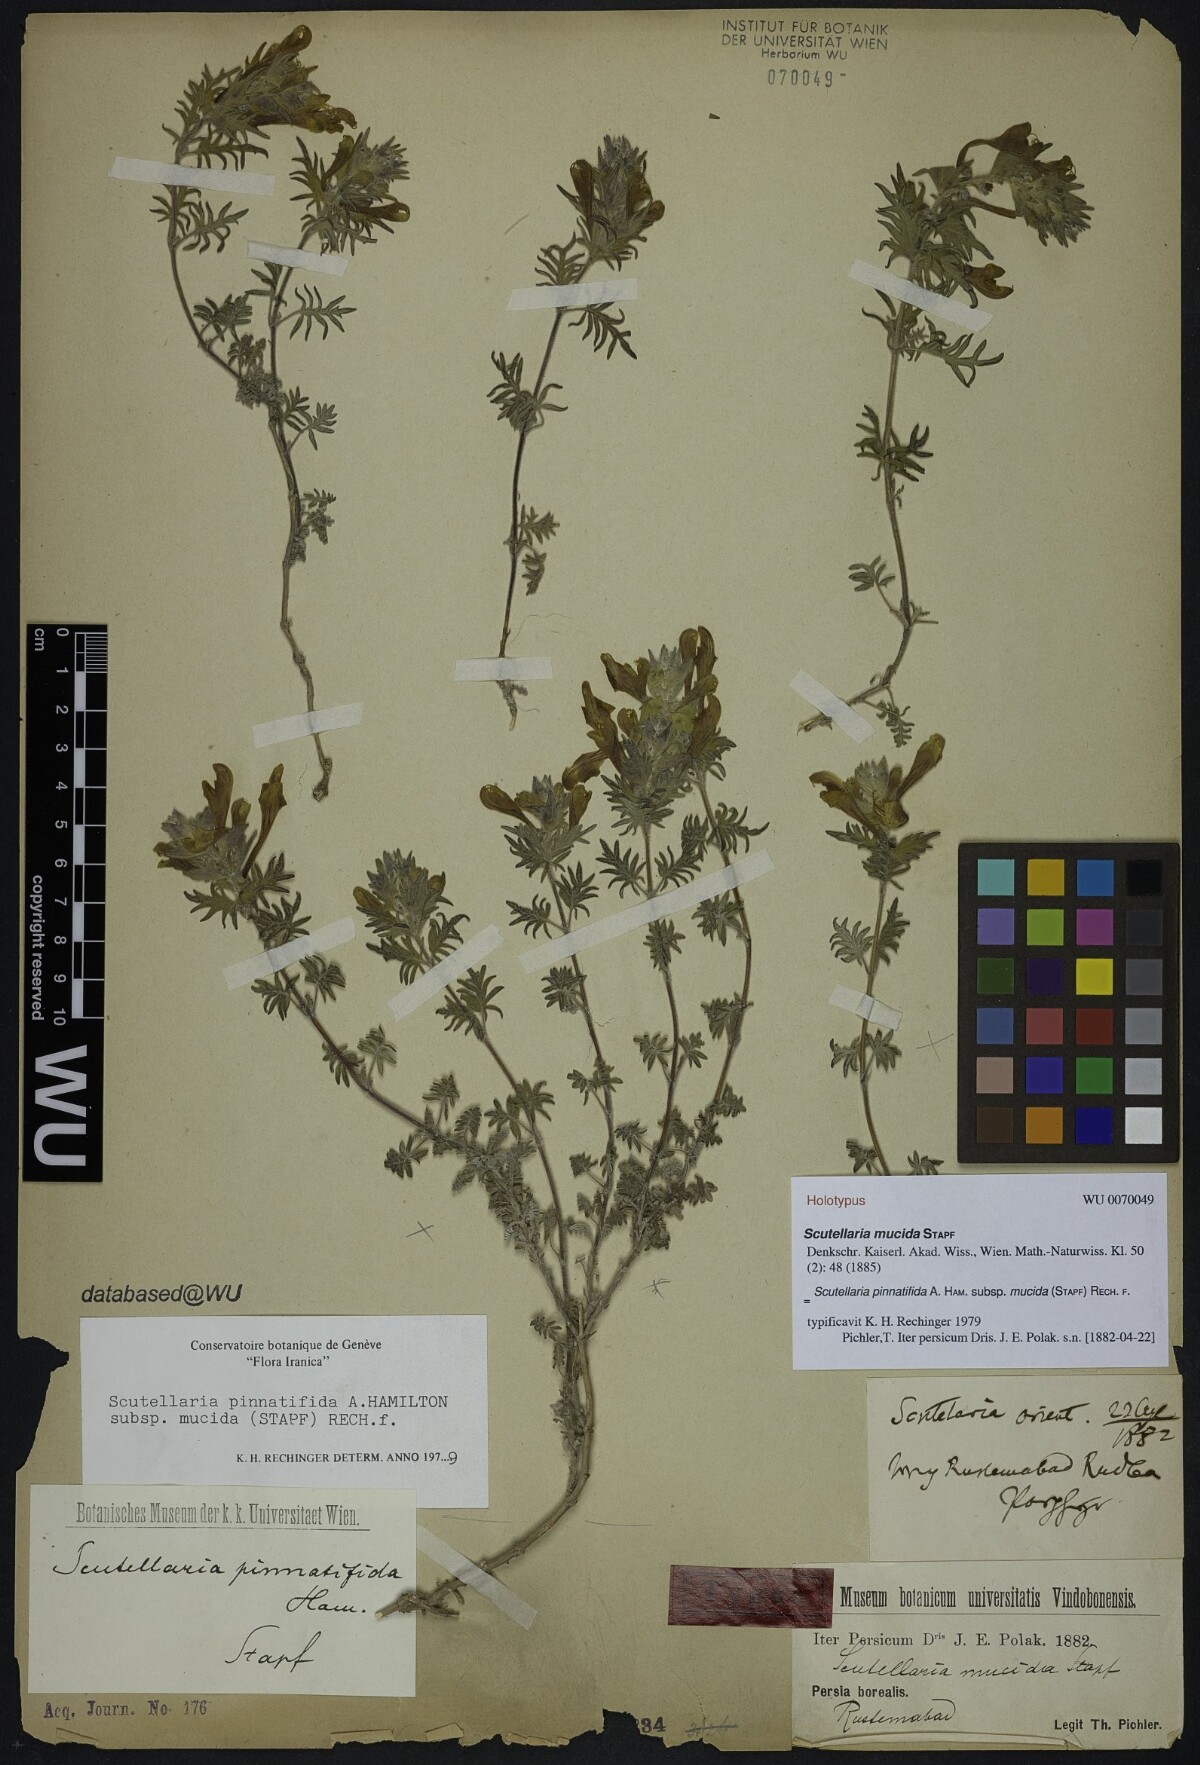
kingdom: Plantae
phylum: Tracheophyta
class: Magnoliopsida
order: Lamiales
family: Lamiaceae
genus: Scutellaria
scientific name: Scutellaria pinnatifida
